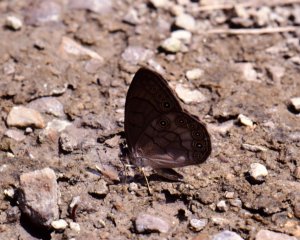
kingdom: Animalia
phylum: Arthropoda
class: Insecta
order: Lepidoptera
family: Nymphalidae
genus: Lethe
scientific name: Lethe eurydice
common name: Appalachian Eyed Brown
